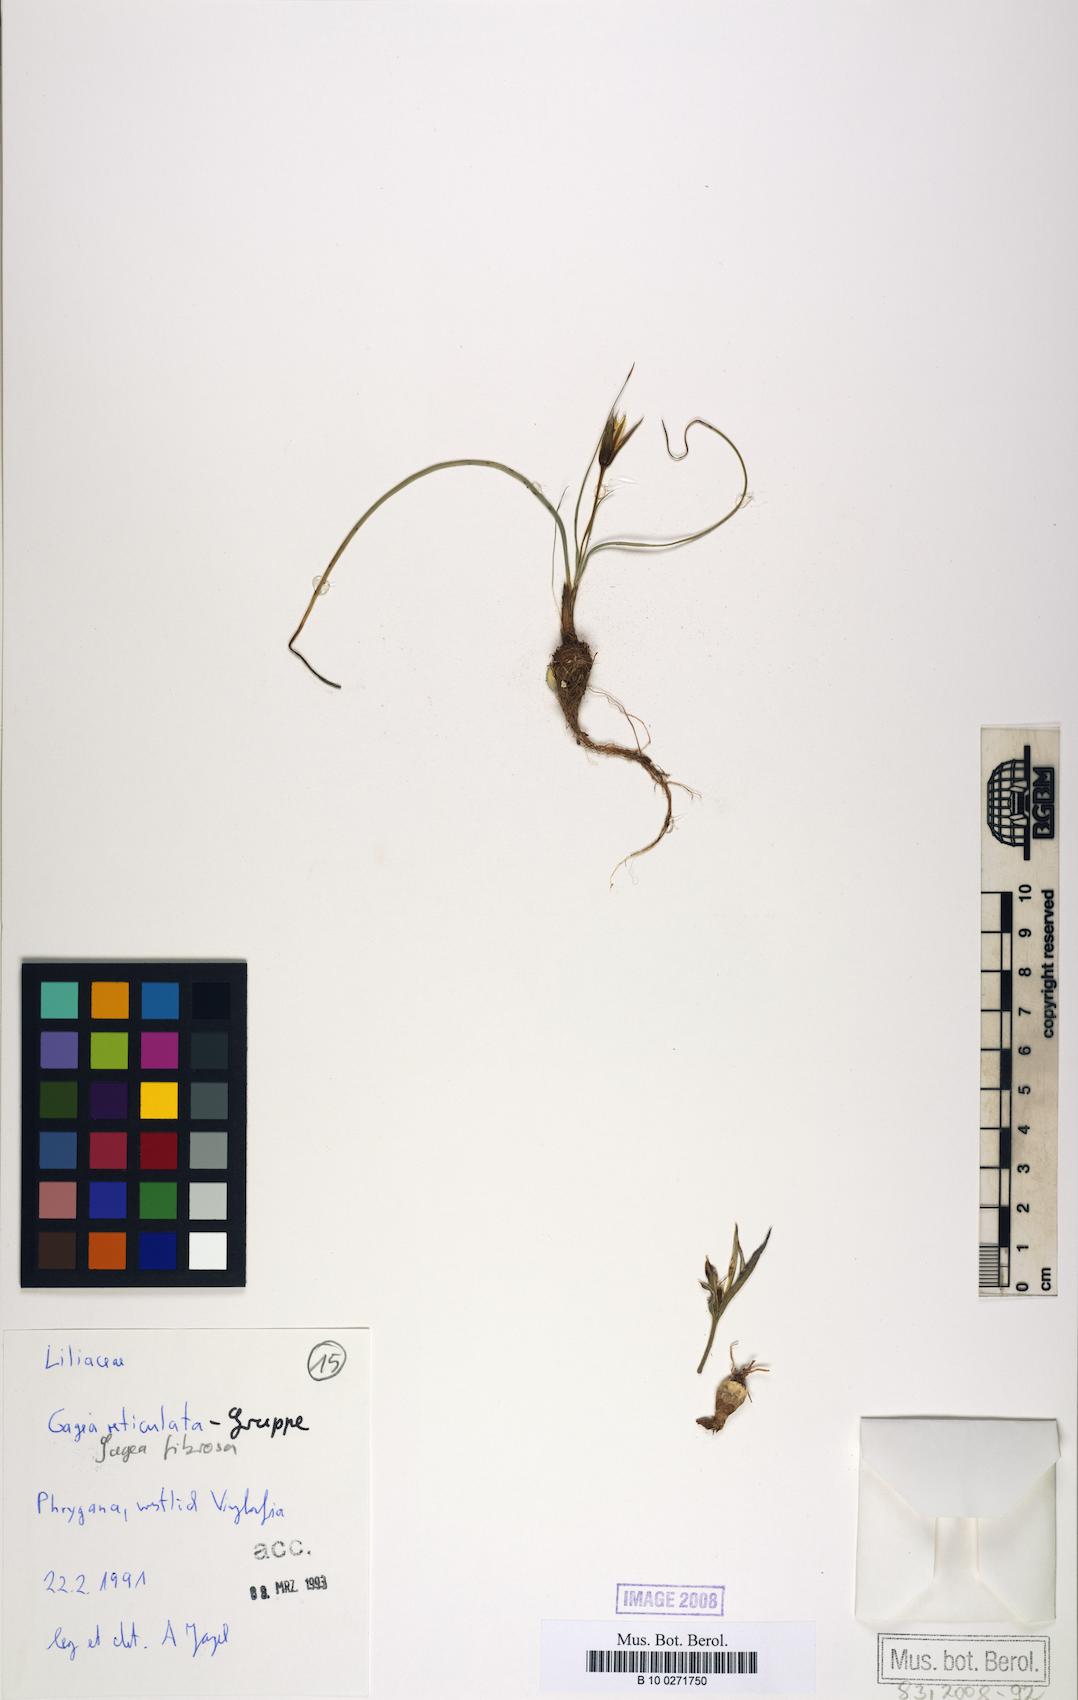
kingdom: Plantae
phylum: Tracheophyta
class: Liliopsida
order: Liliales
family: Liliaceae
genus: Gagea
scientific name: Gagea fibrosa
